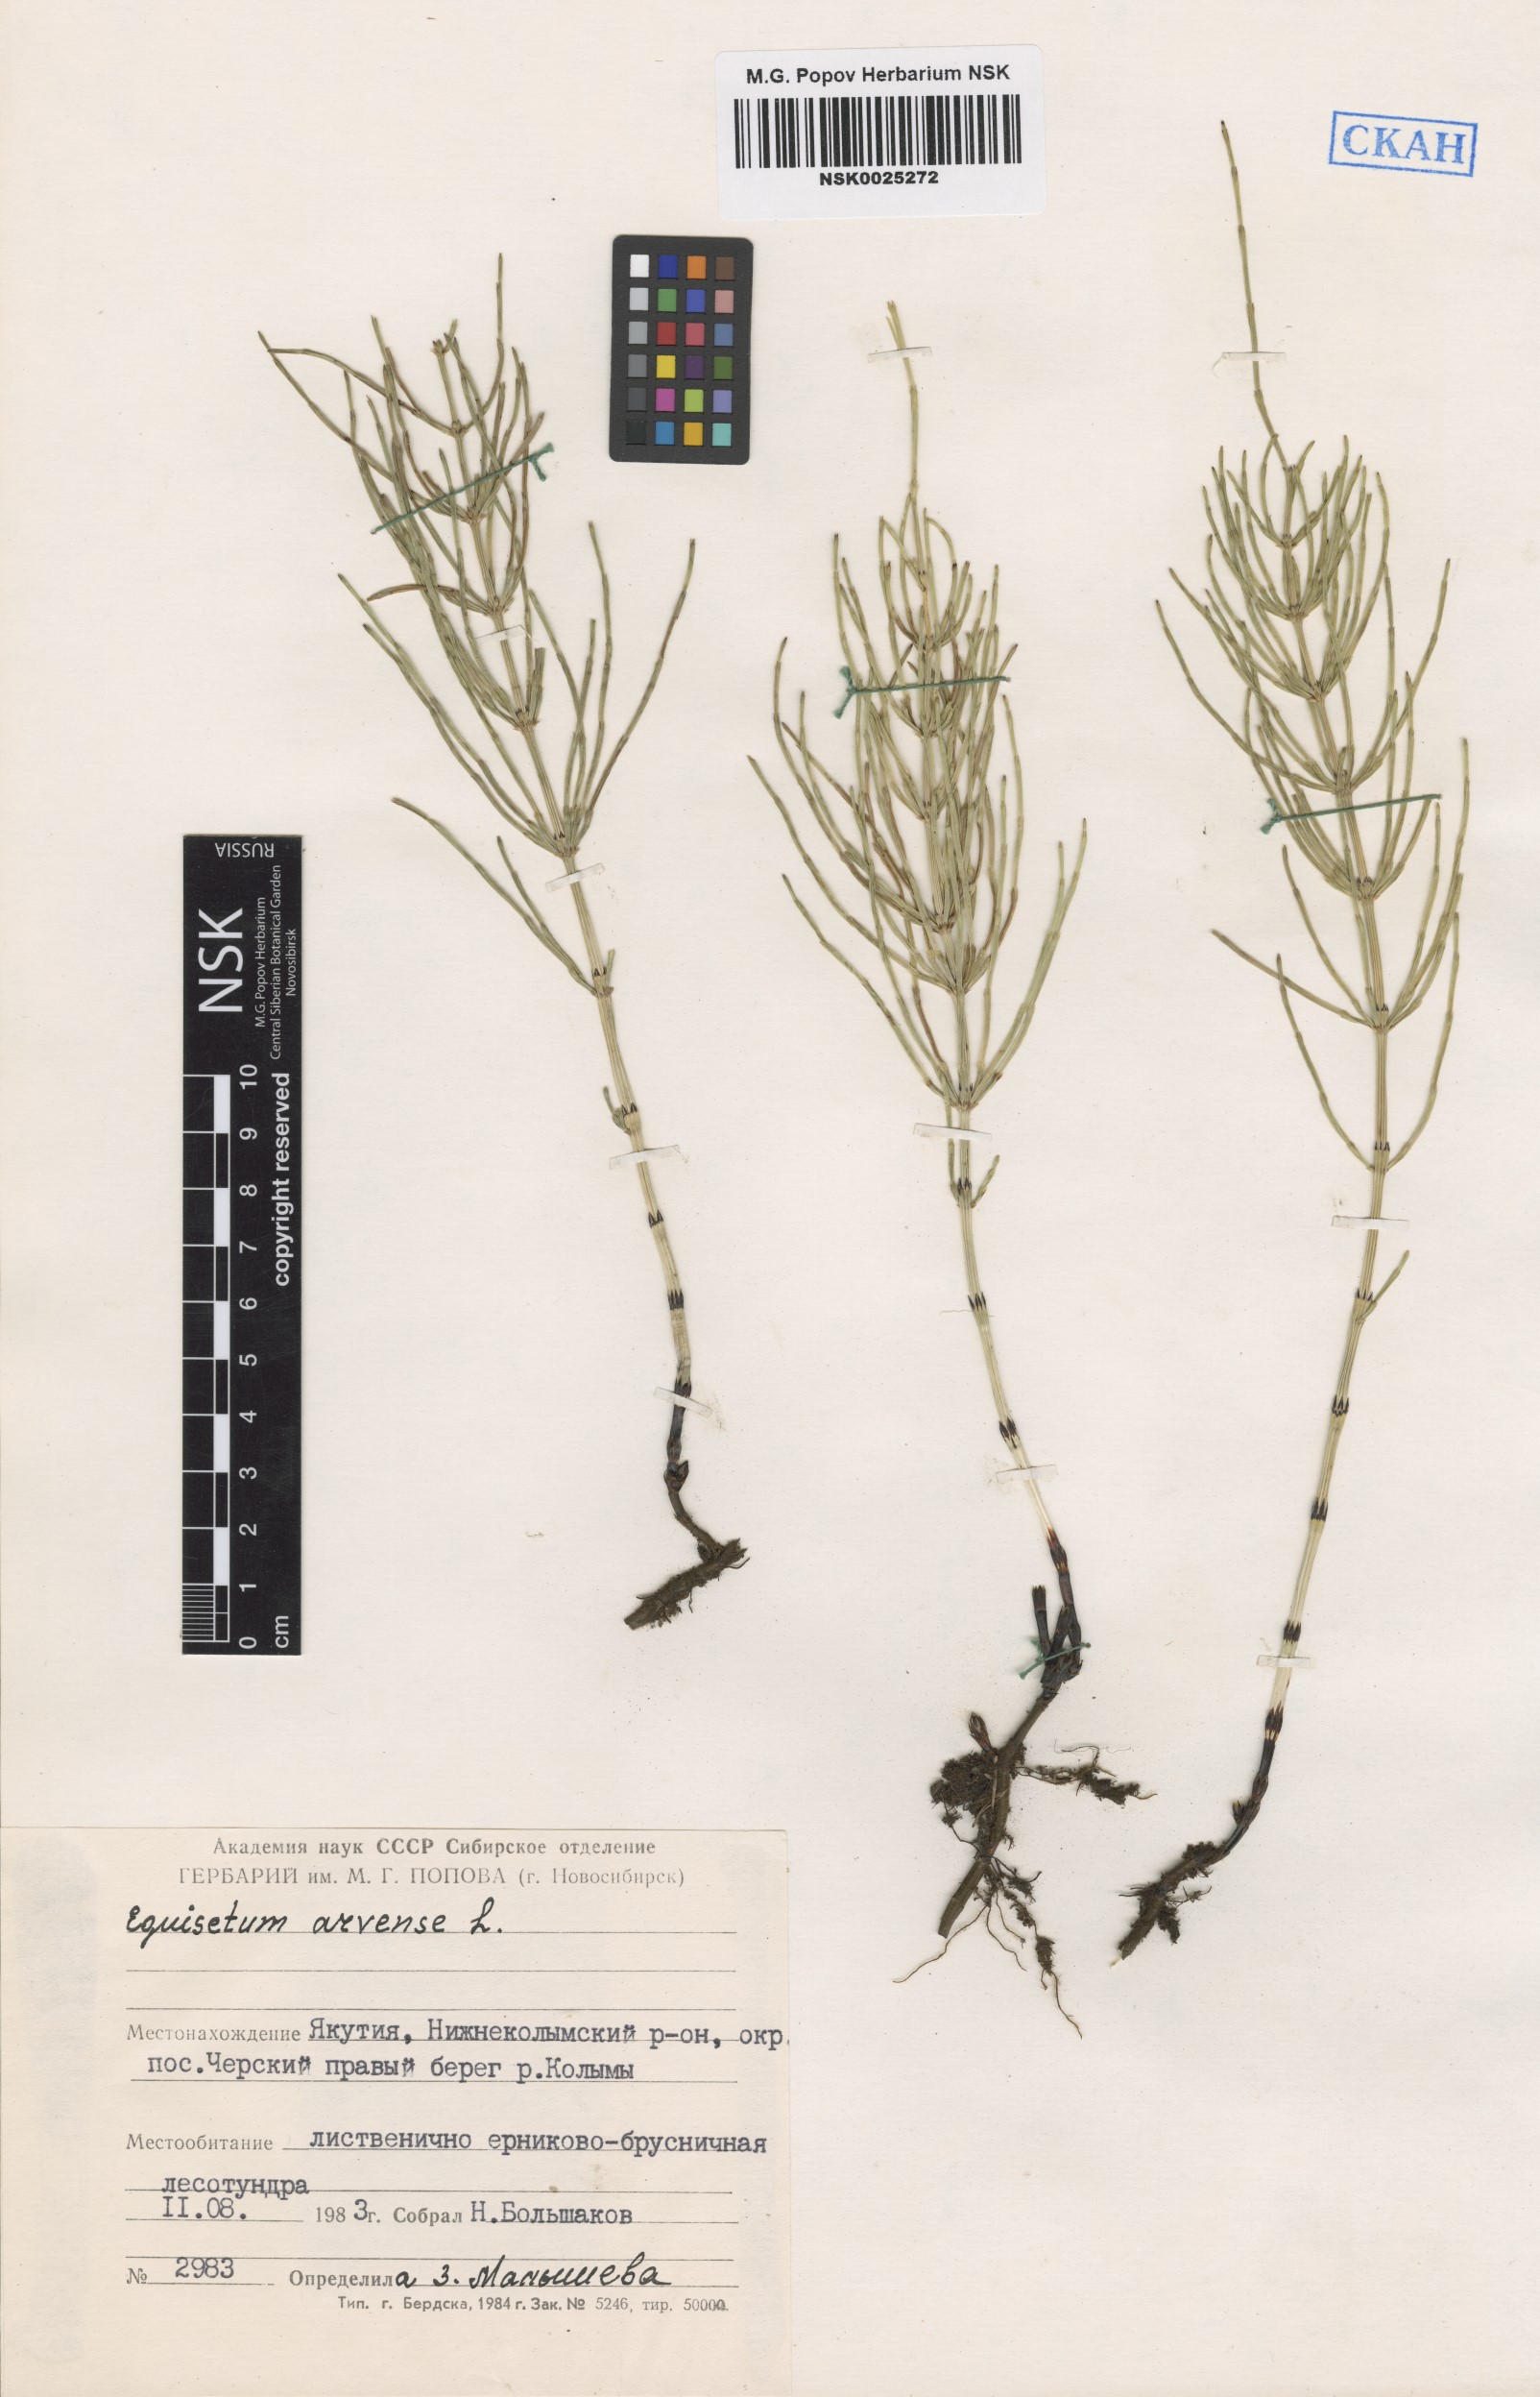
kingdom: Plantae
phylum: Tracheophyta
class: Polypodiopsida
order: Equisetales
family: Equisetaceae
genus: Equisetum
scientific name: Equisetum arvense
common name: Field horsetail
